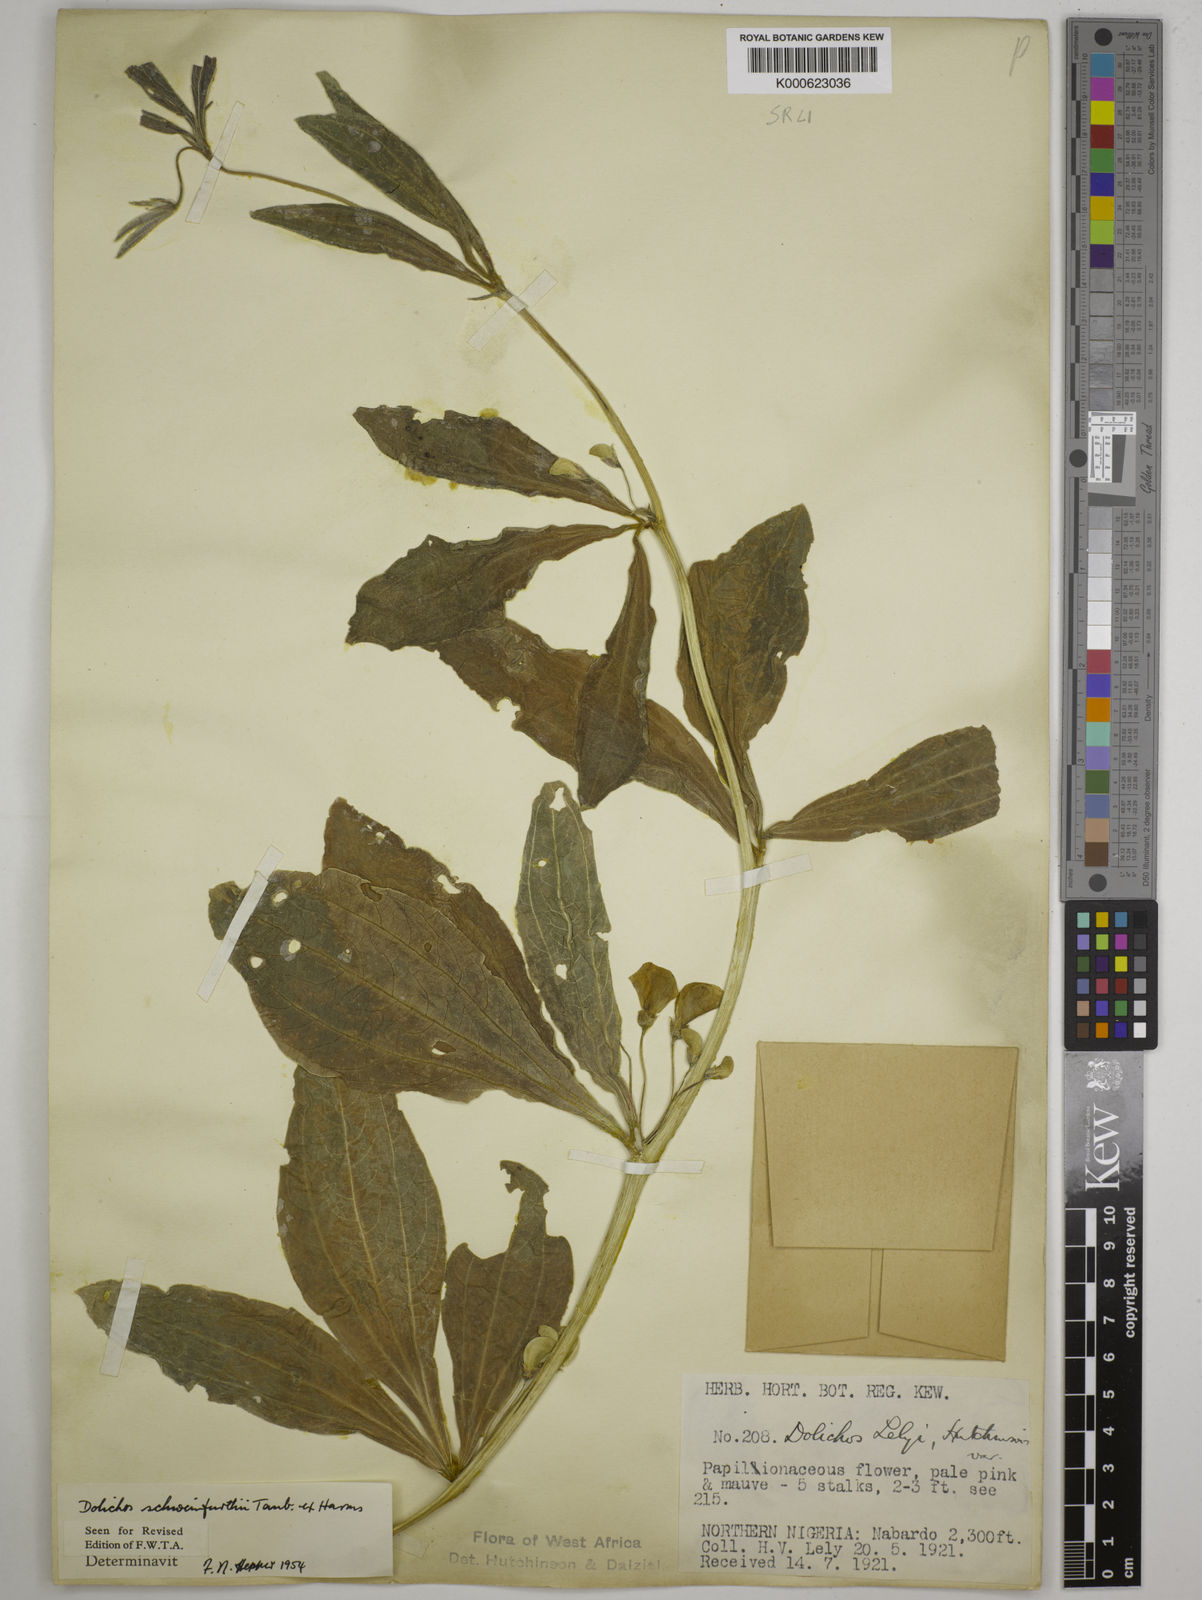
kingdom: Plantae
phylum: Tracheophyta
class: Magnoliopsida
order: Fabales
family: Fabaceae
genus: Dolichos
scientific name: Dolichos
